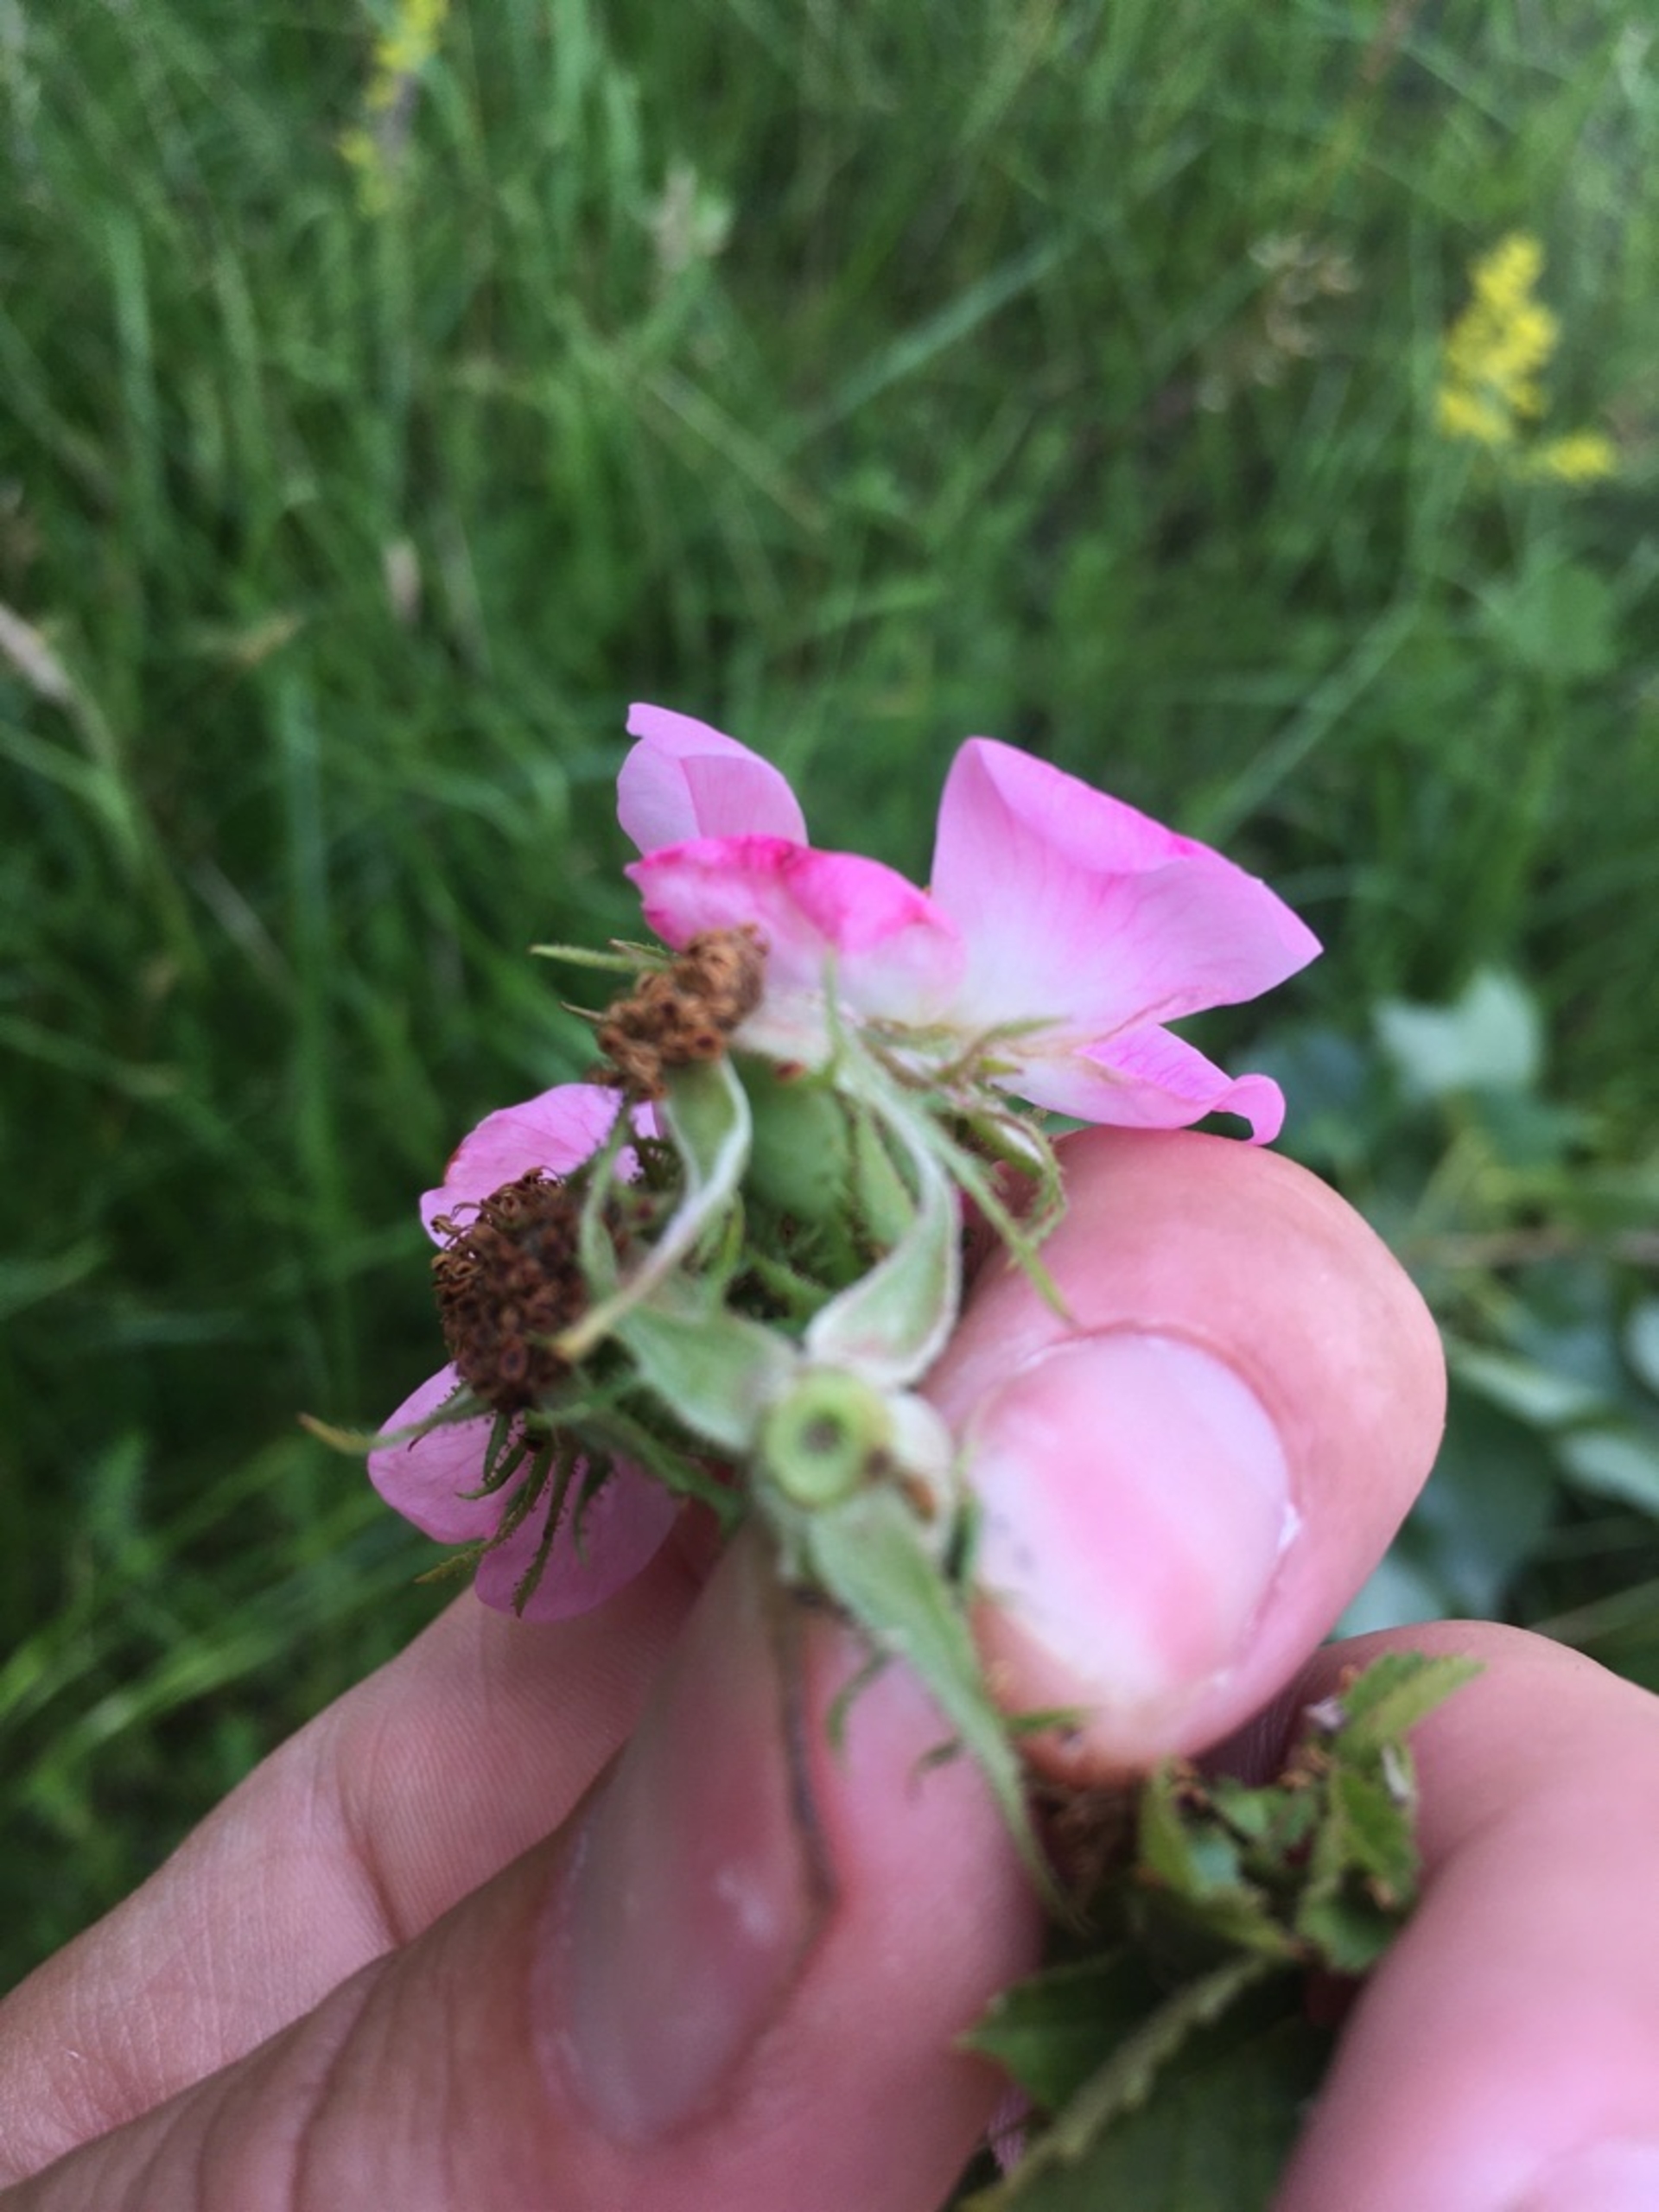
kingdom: Plantae
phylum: Tracheophyta
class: Magnoliopsida
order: Rosales
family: Rosaceae
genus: Rosa
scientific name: Rosa rubiginosa
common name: Æble-rose
